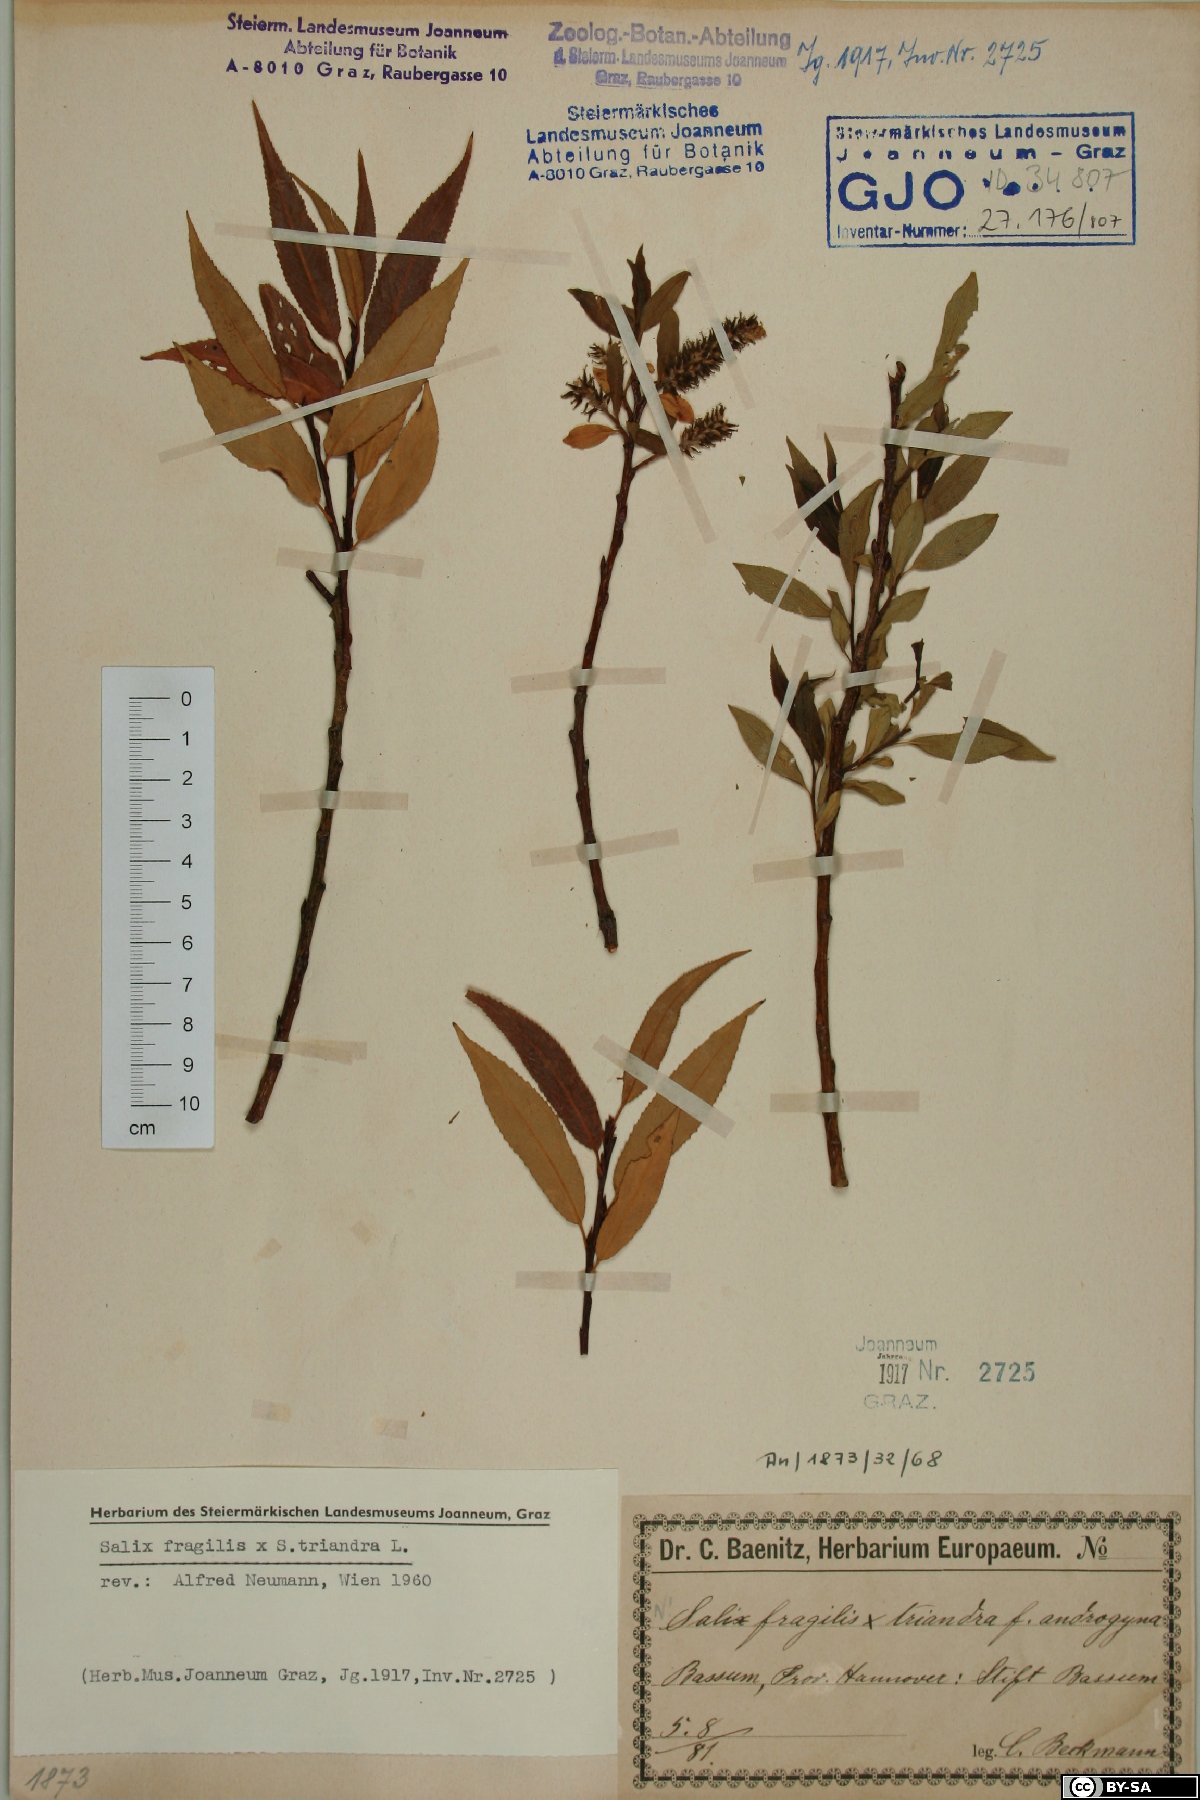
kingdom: Plantae
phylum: Tracheophyta
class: Magnoliopsida
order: Malpighiales
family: Salicaceae
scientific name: Salicaceae
